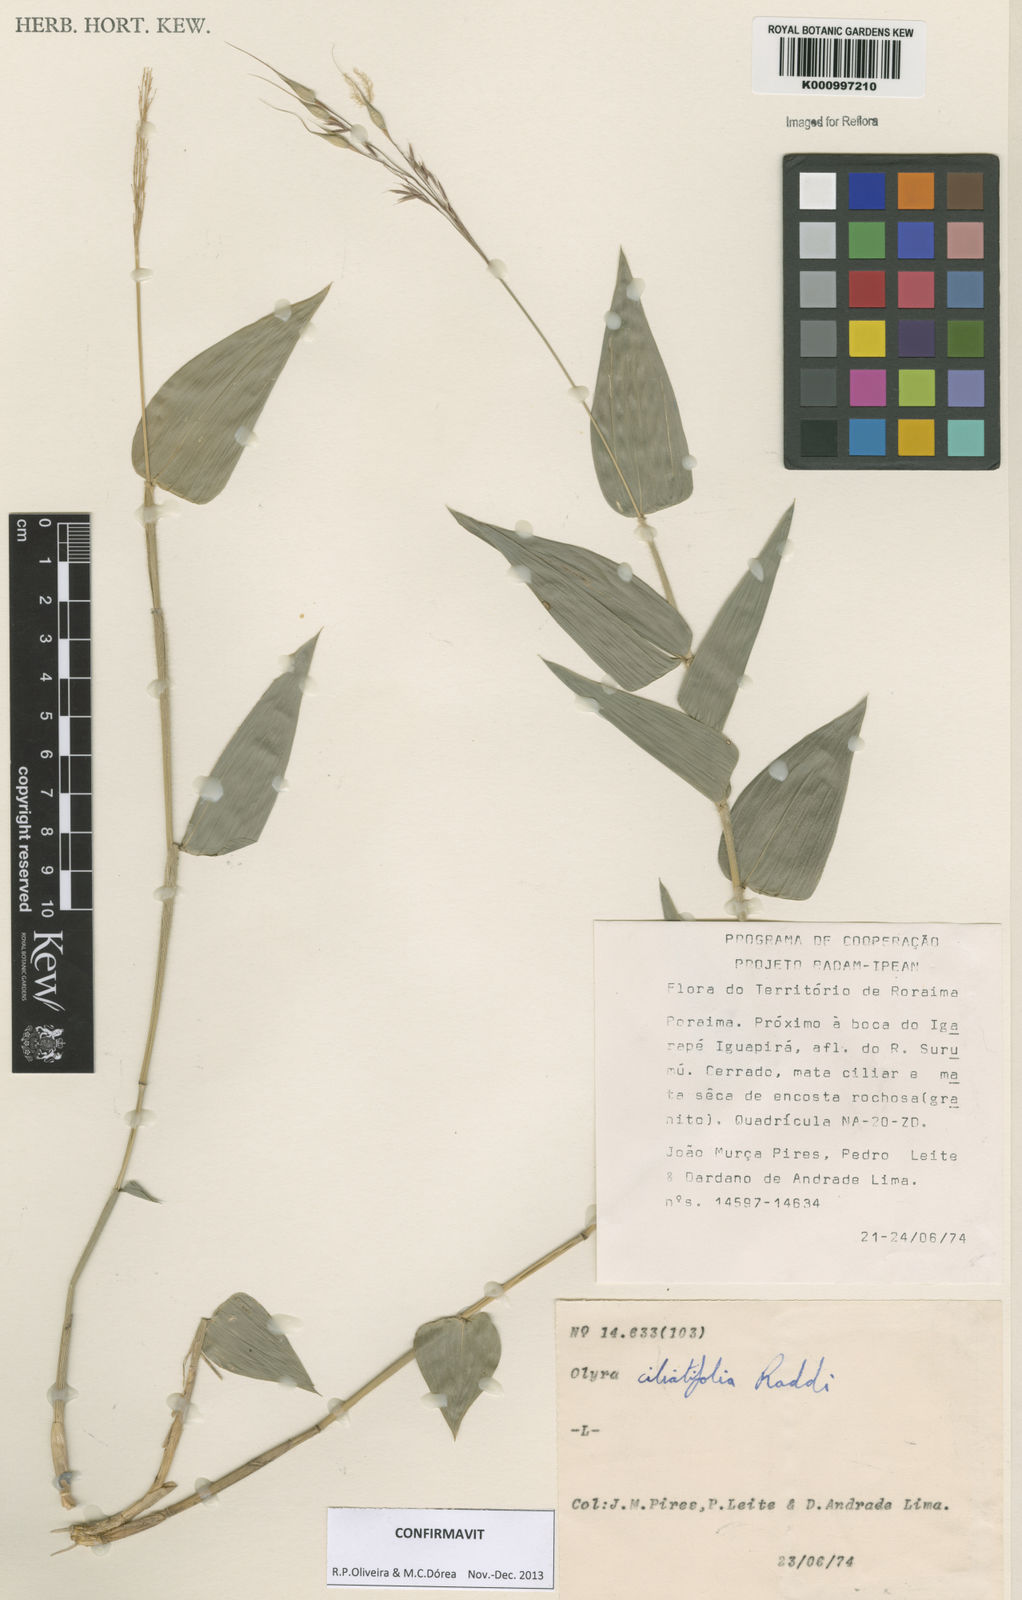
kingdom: Plantae
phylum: Tracheophyta
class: Liliopsida
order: Poales
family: Poaceae
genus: Olyra
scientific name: Olyra ciliatifolia
